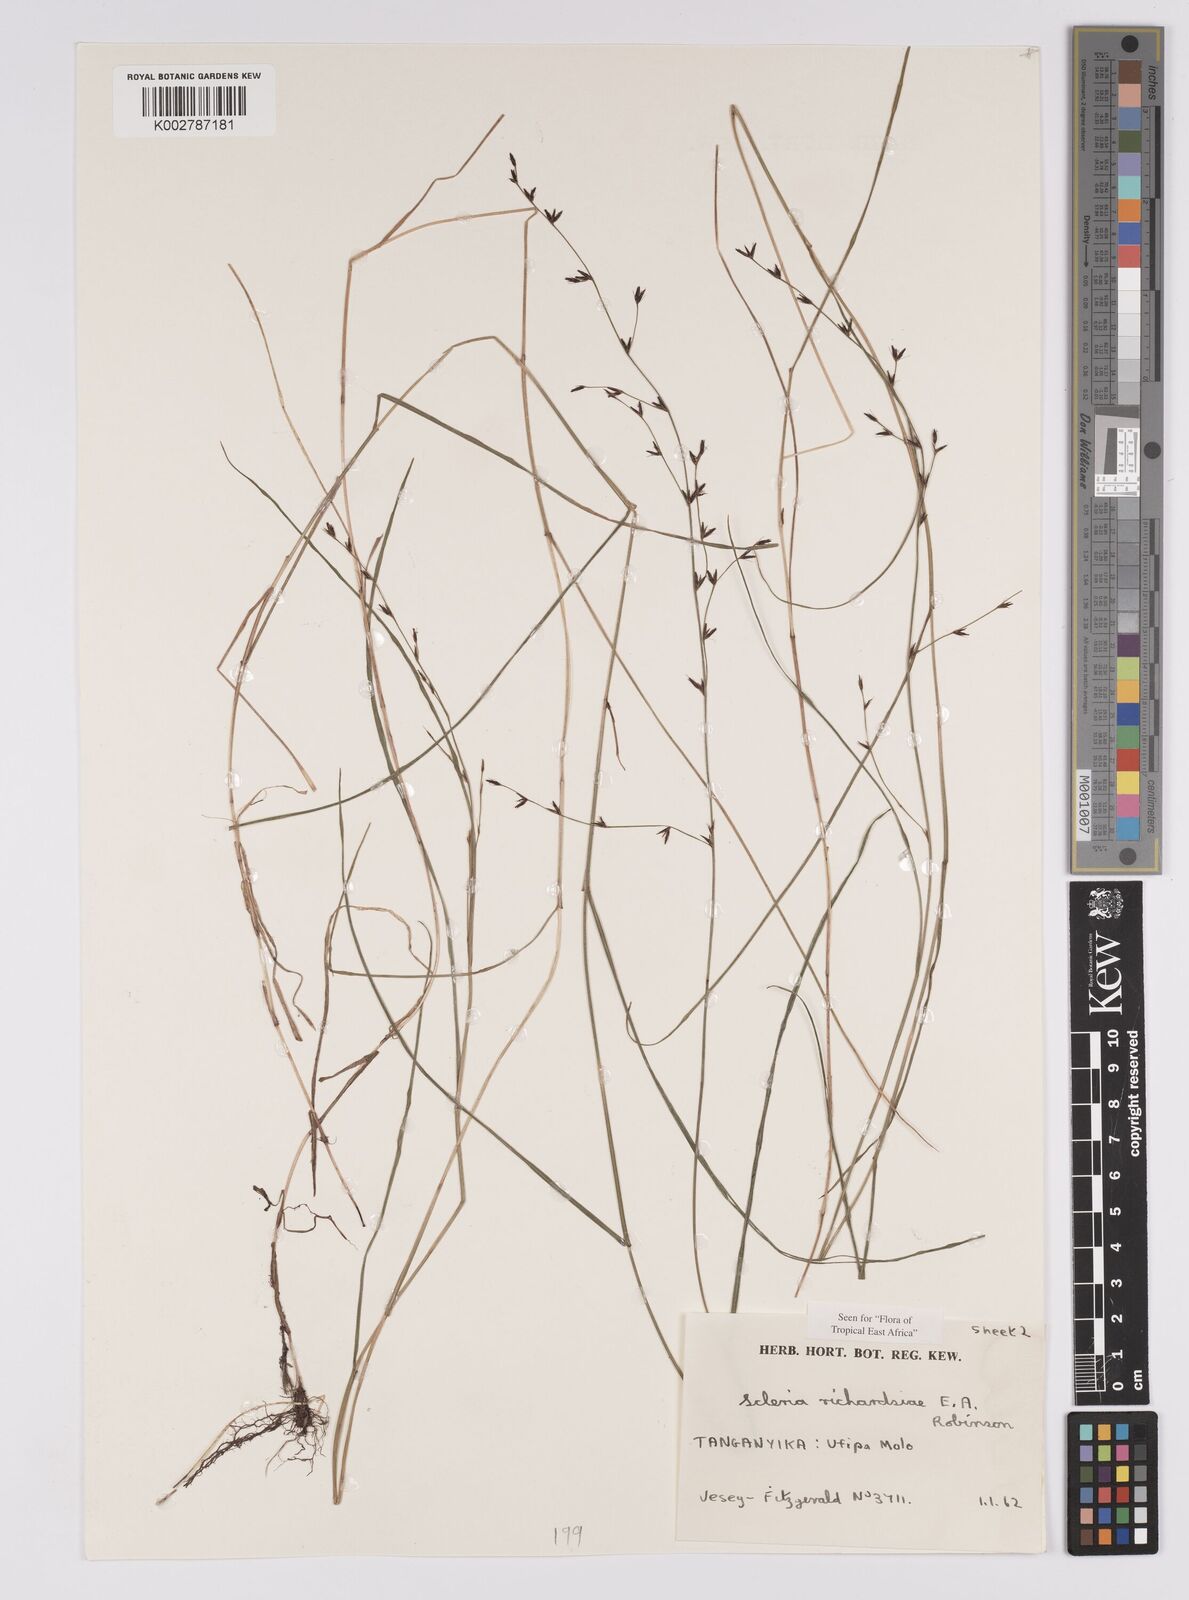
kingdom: Plantae
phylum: Tracheophyta
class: Liliopsida
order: Poales
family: Cyperaceae
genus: Scleria
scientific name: Scleria richardsiae
